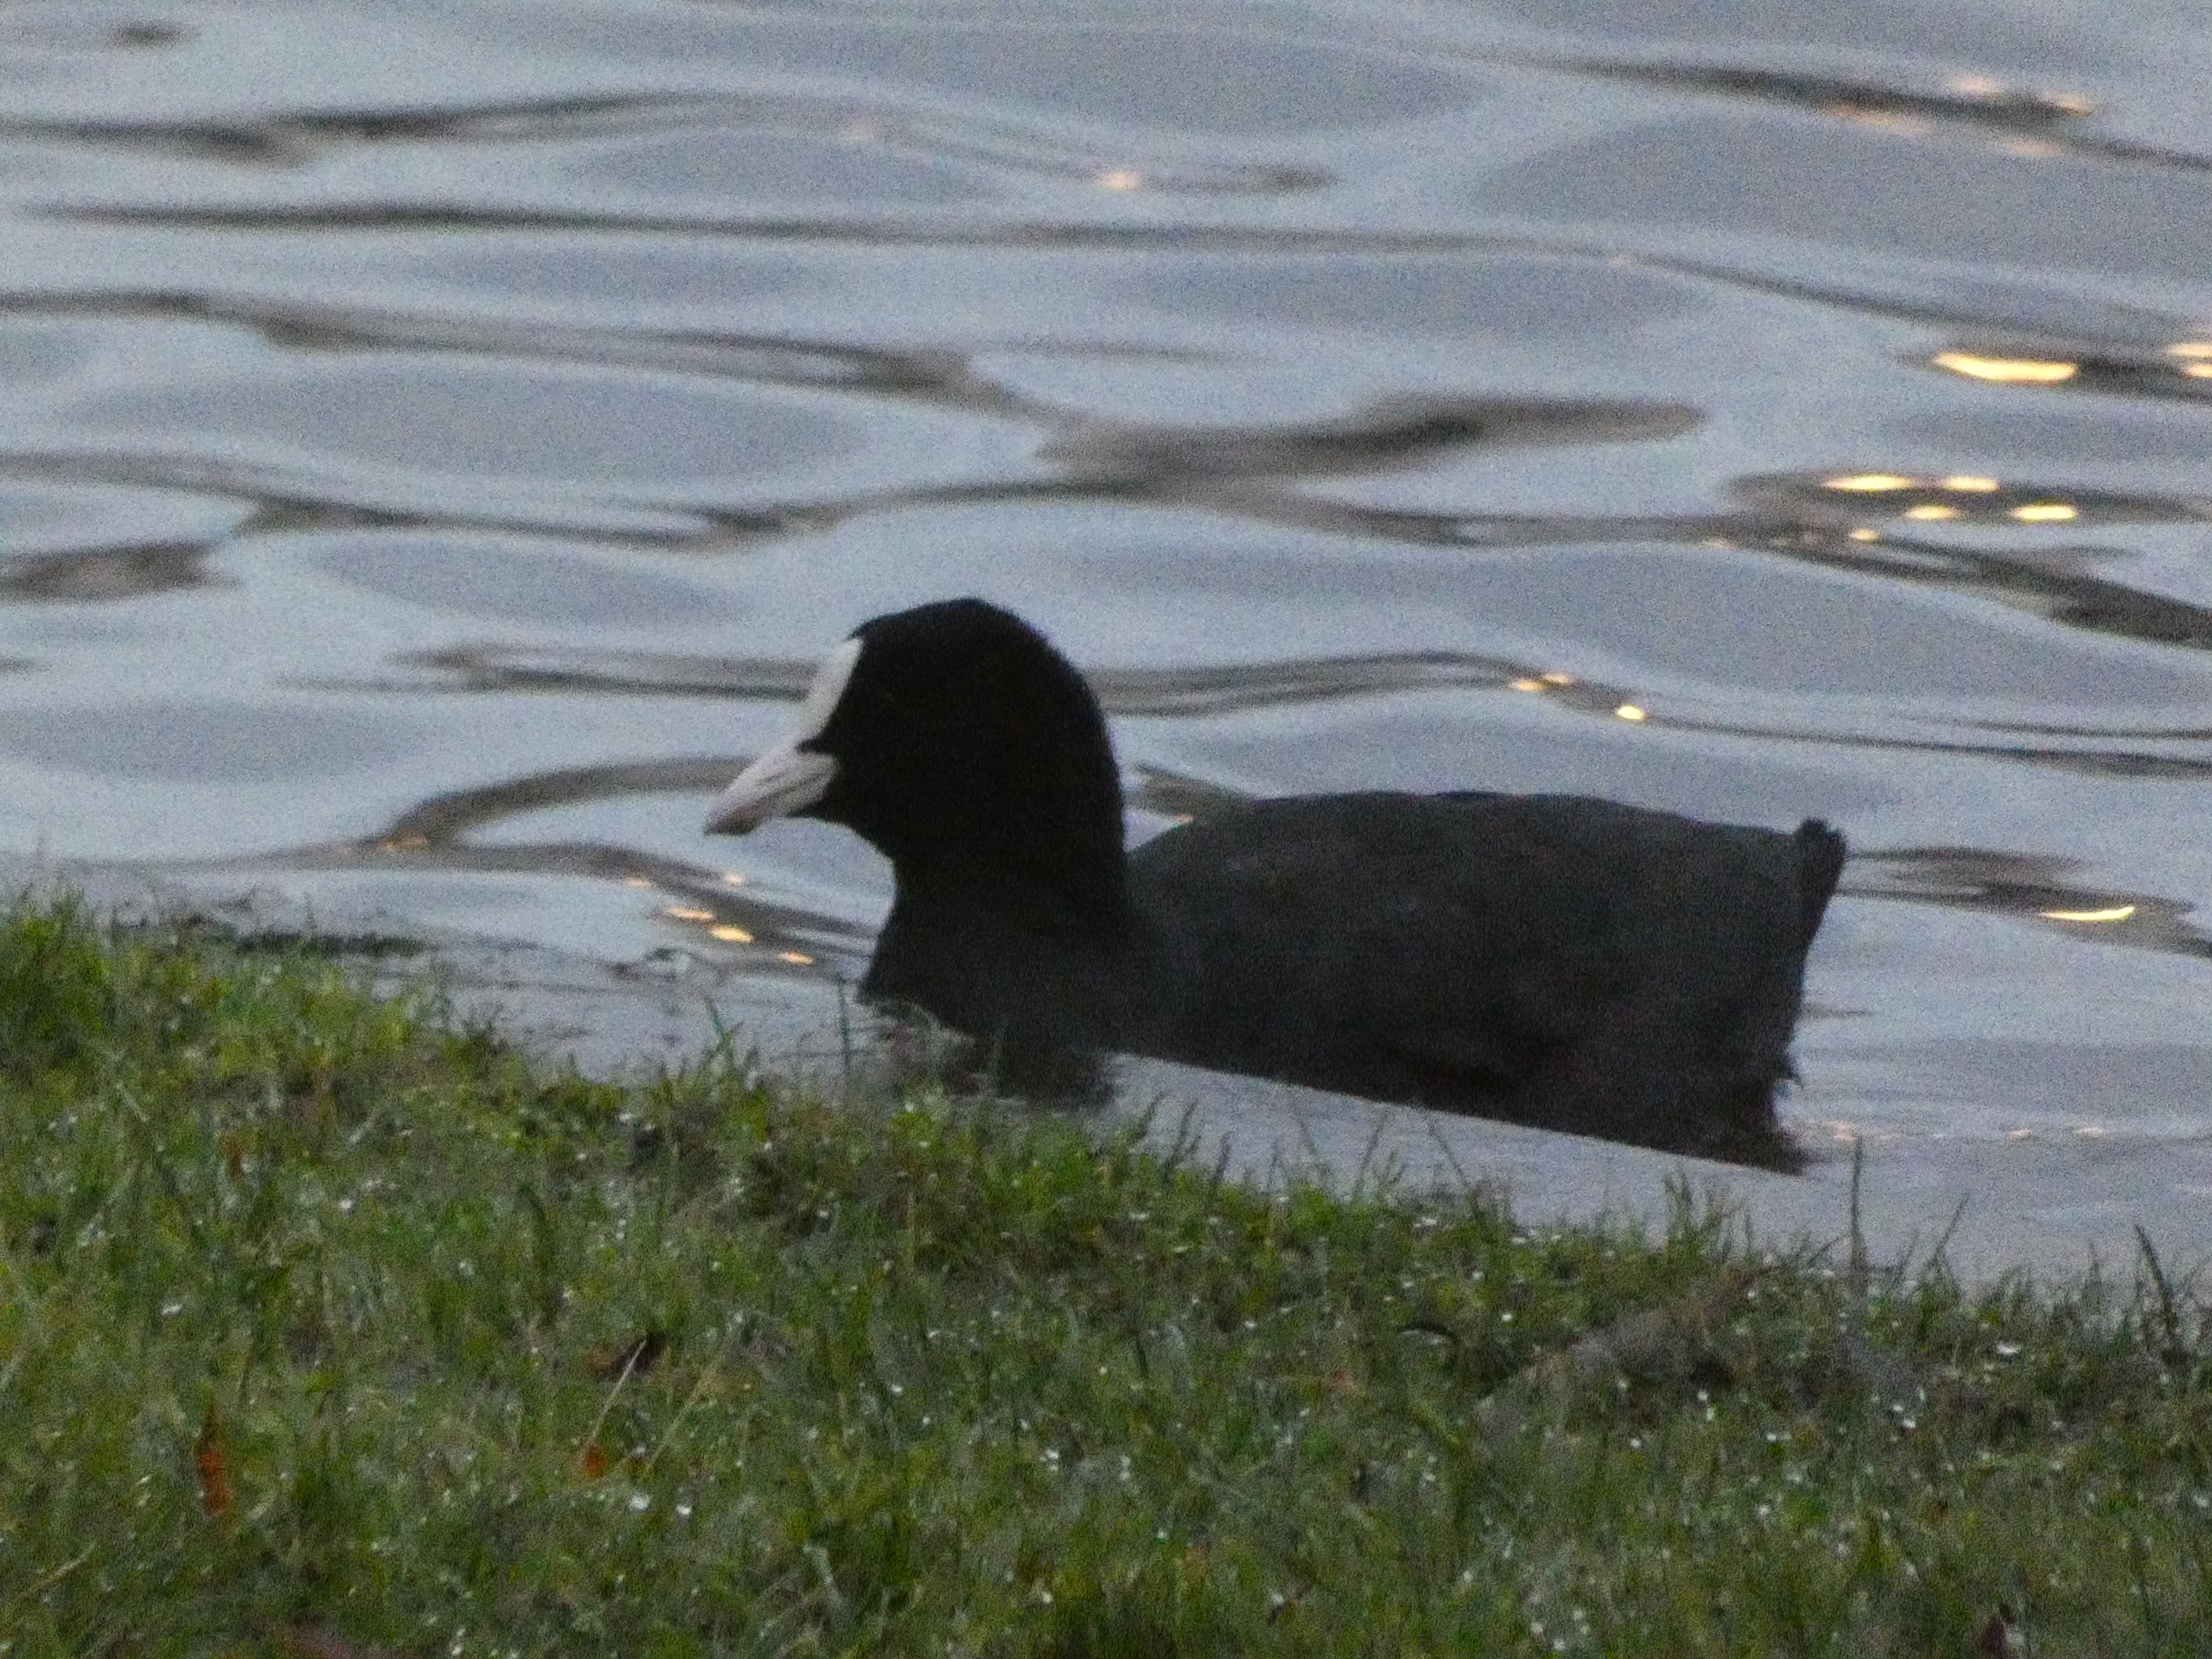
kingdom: Animalia
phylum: Chordata
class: Aves
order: Gruiformes
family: Rallidae
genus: Fulica
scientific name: Fulica atra
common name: Blishøne
